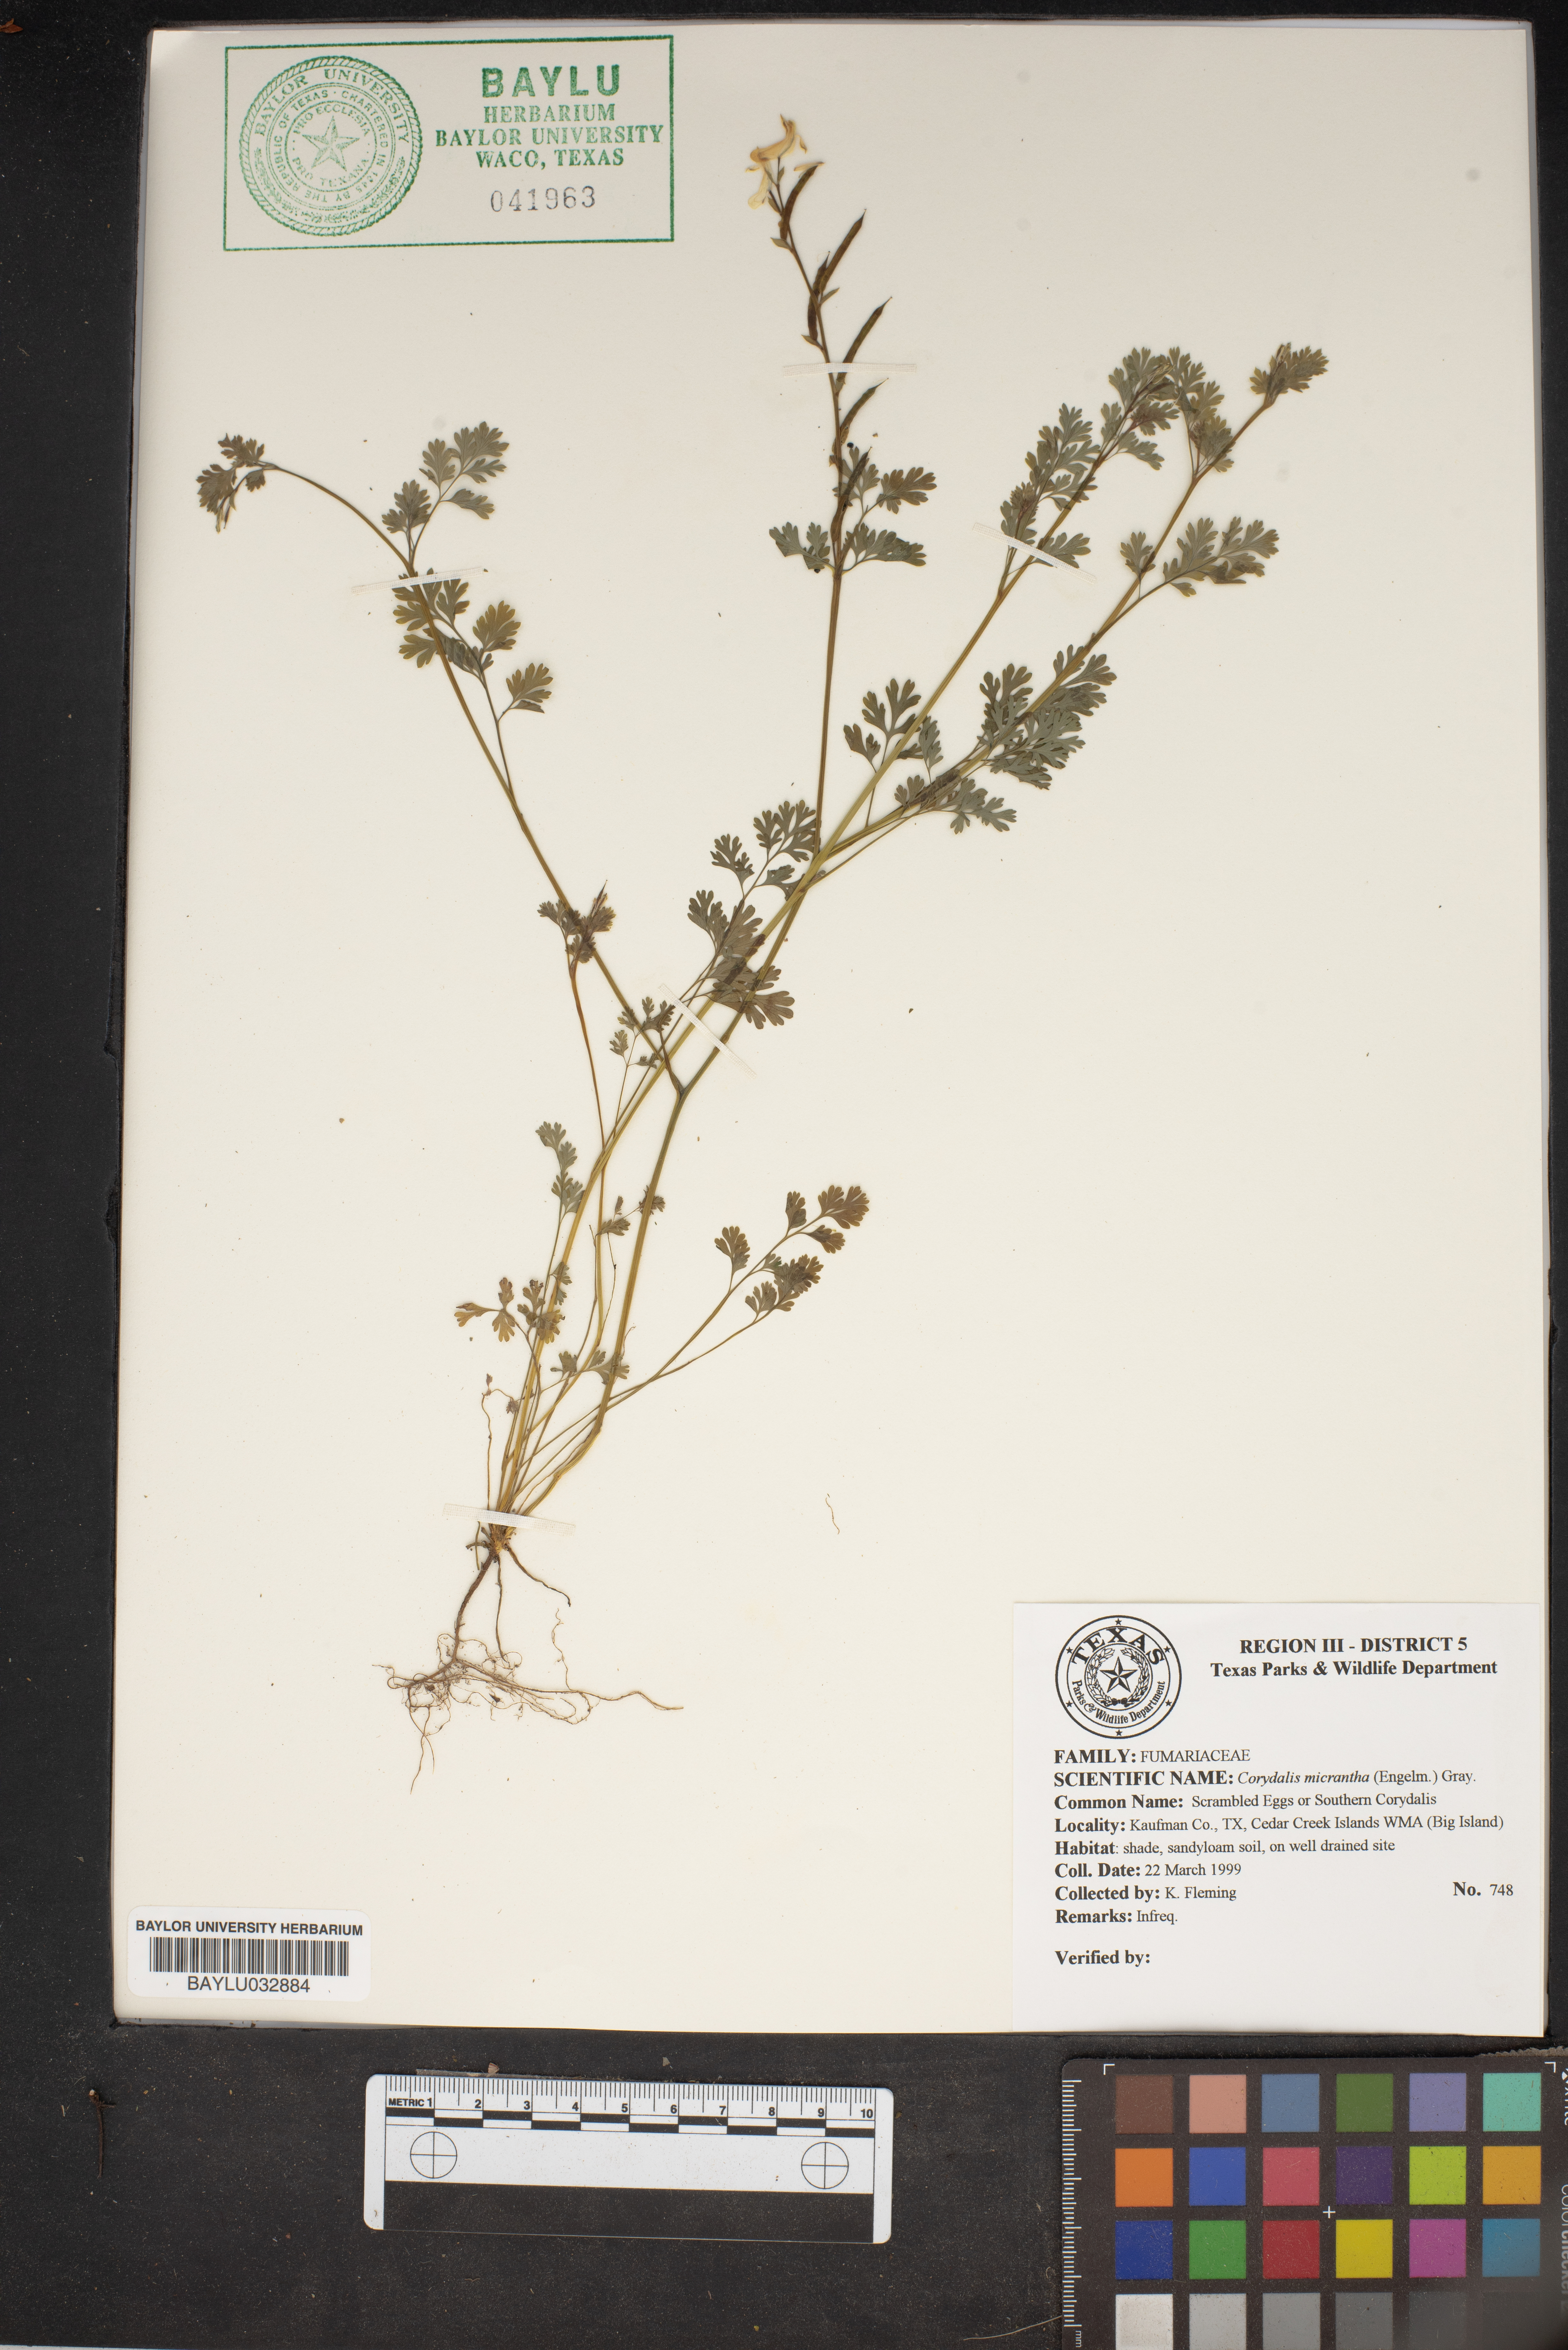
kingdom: Plantae
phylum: Tracheophyta
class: Magnoliopsida
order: Ranunculales
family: Papaveraceae
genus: Corydalis
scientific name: Corydalis micrantha
